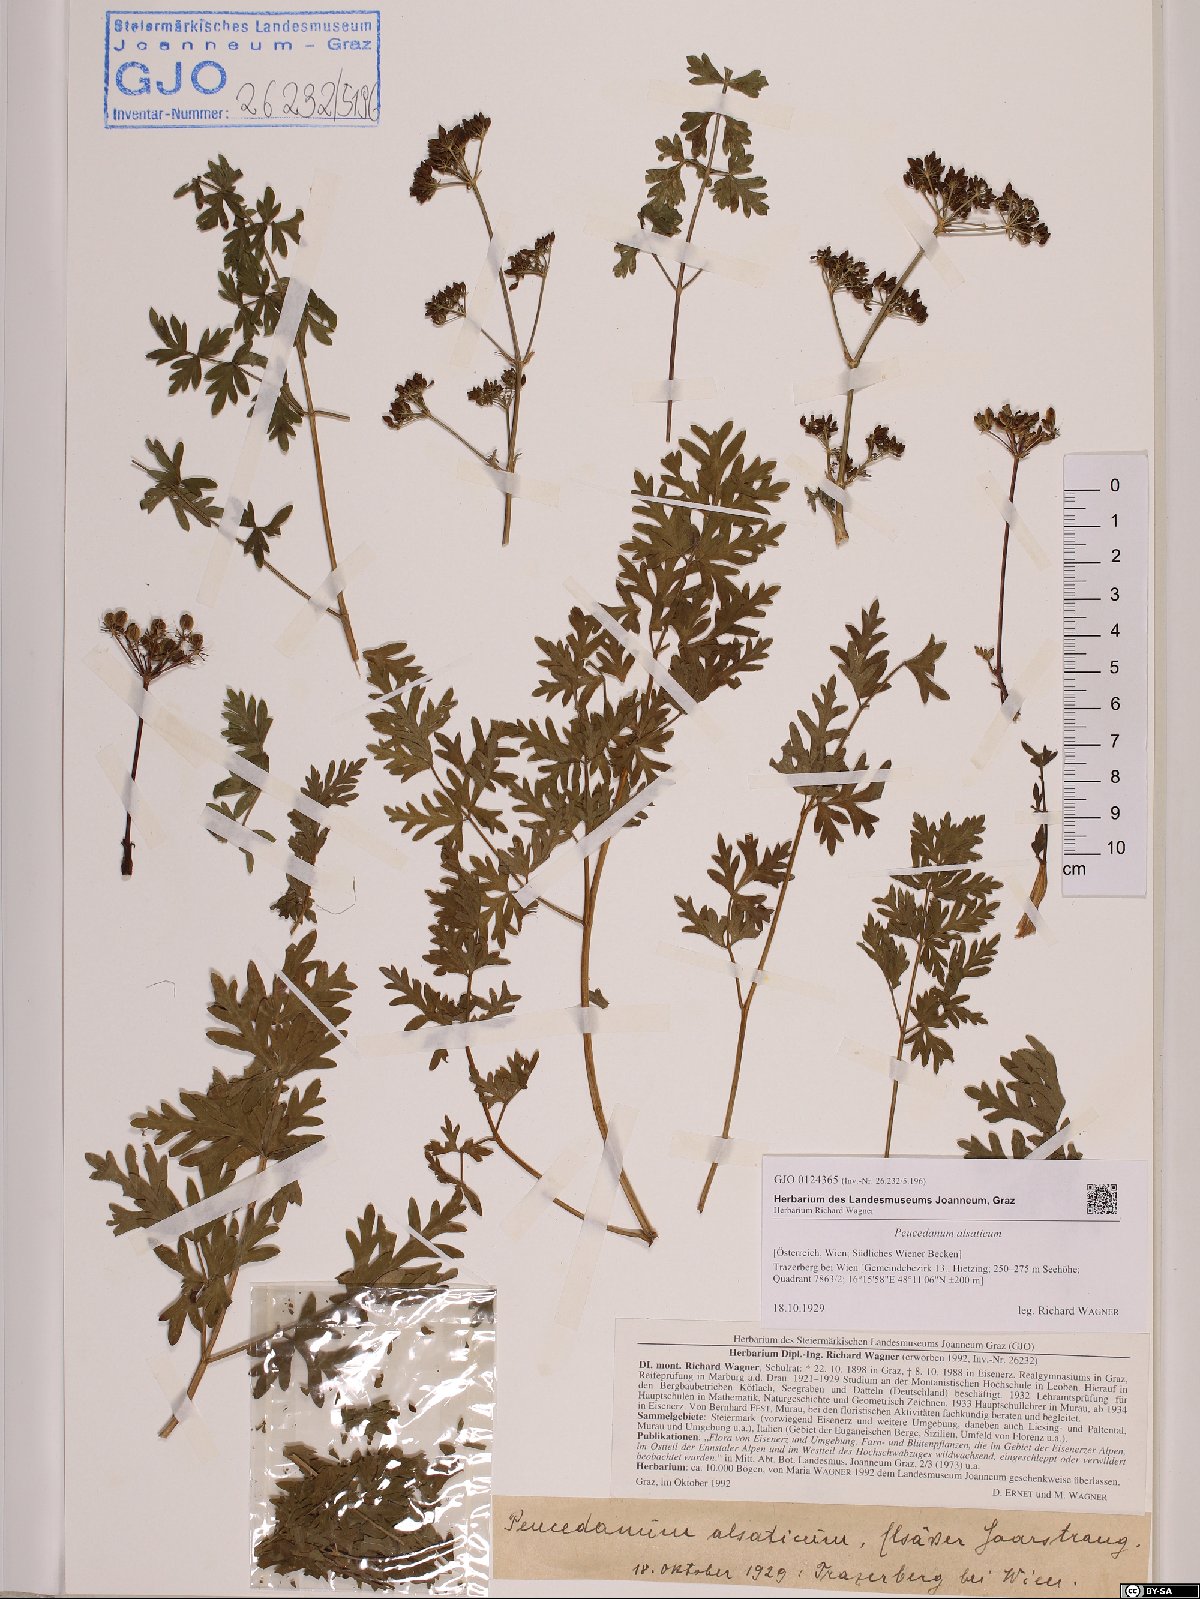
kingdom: Plantae
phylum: Tracheophyta
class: Magnoliopsida
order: Apiales
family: Apiaceae
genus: Xanthoselinum
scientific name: Xanthoselinum alsaticum
